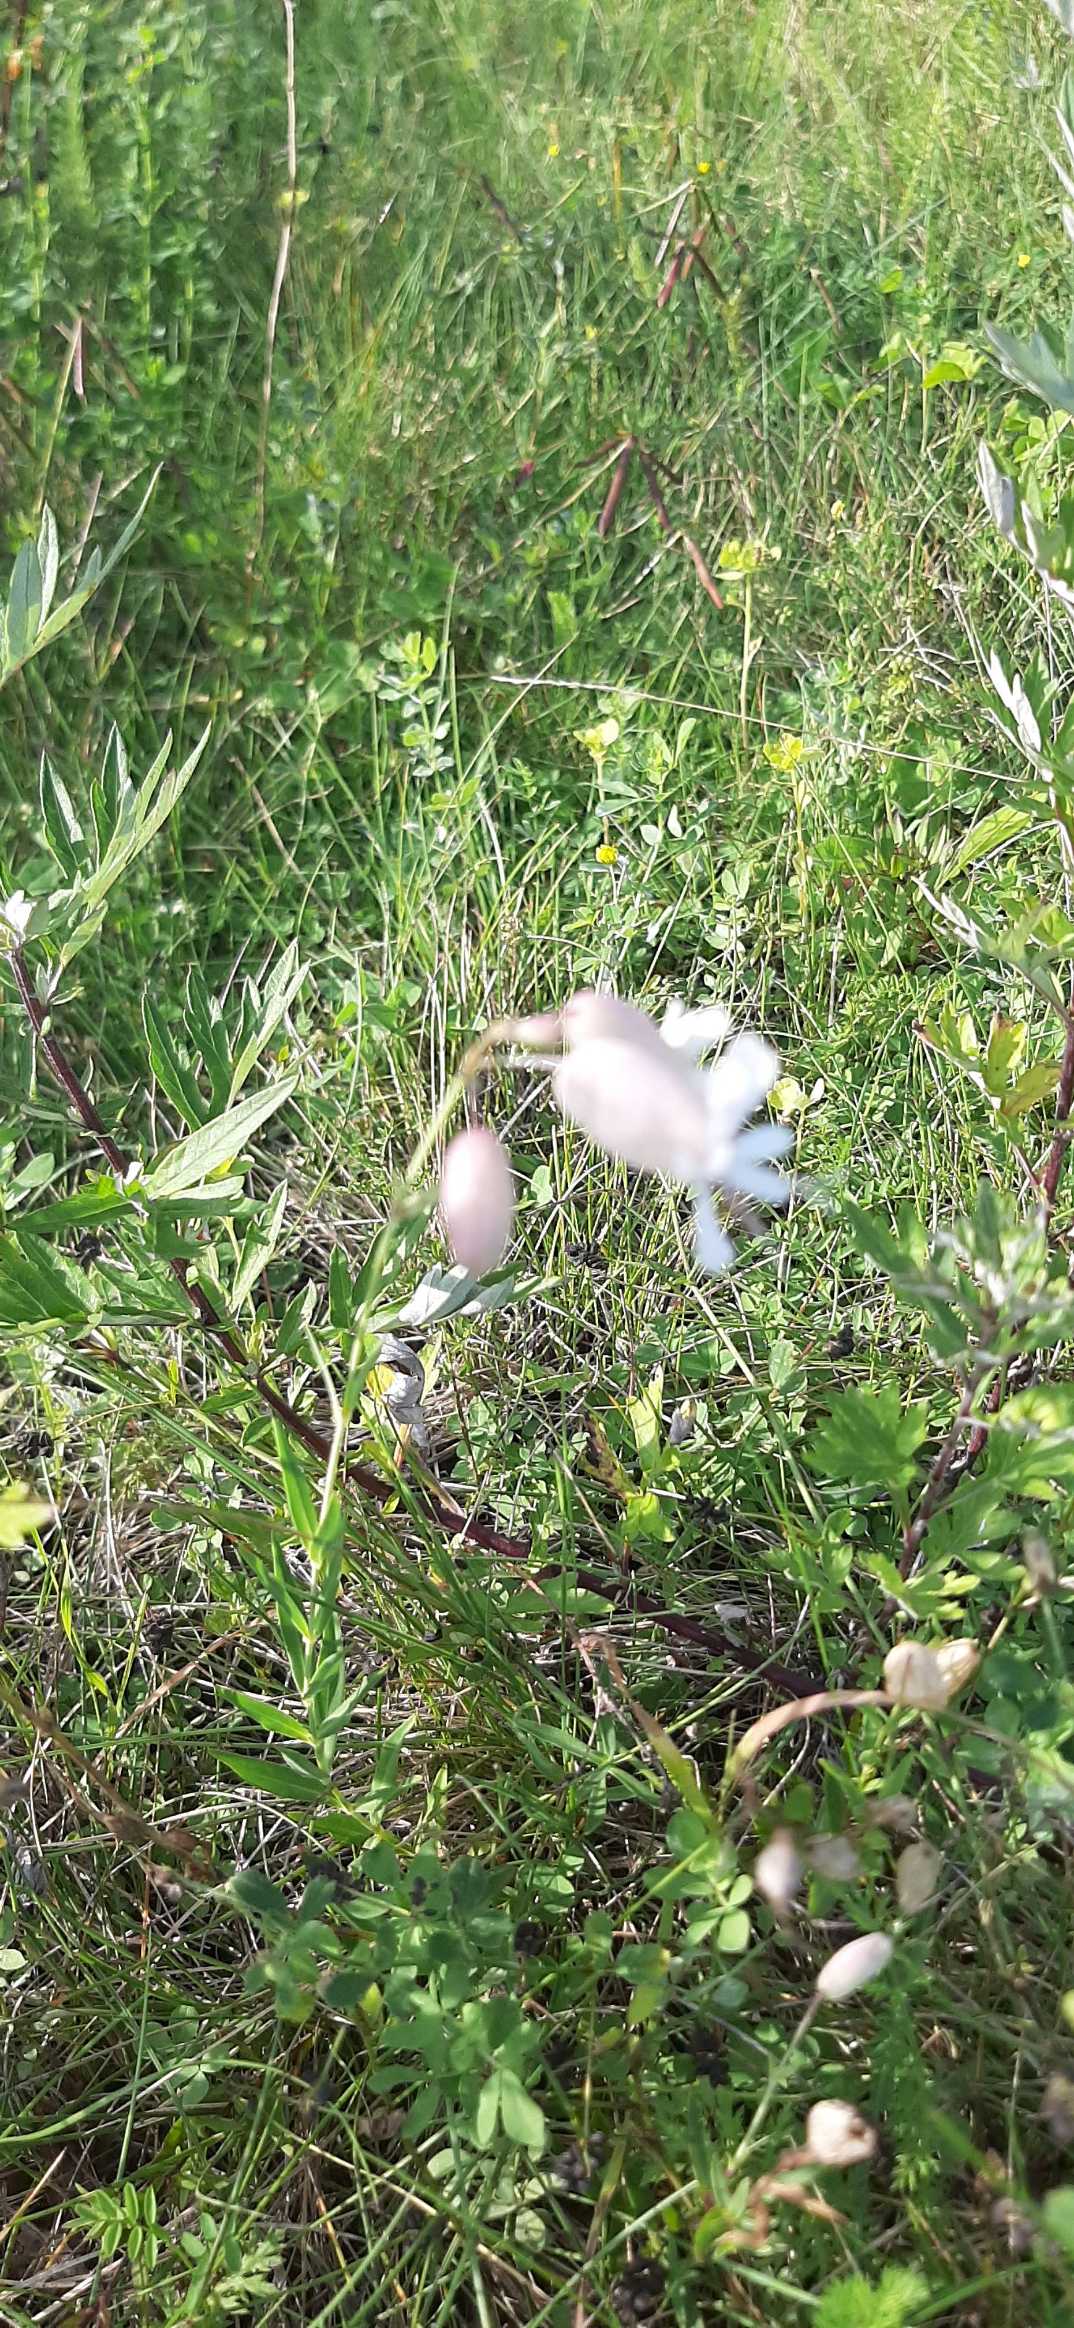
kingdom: Plantae
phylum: Tracheophyta
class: Magnoliopsida
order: Caryophyllales
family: Caryophyllaceae
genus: Silene
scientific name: Silene vulgaris
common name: Blæresmælde
